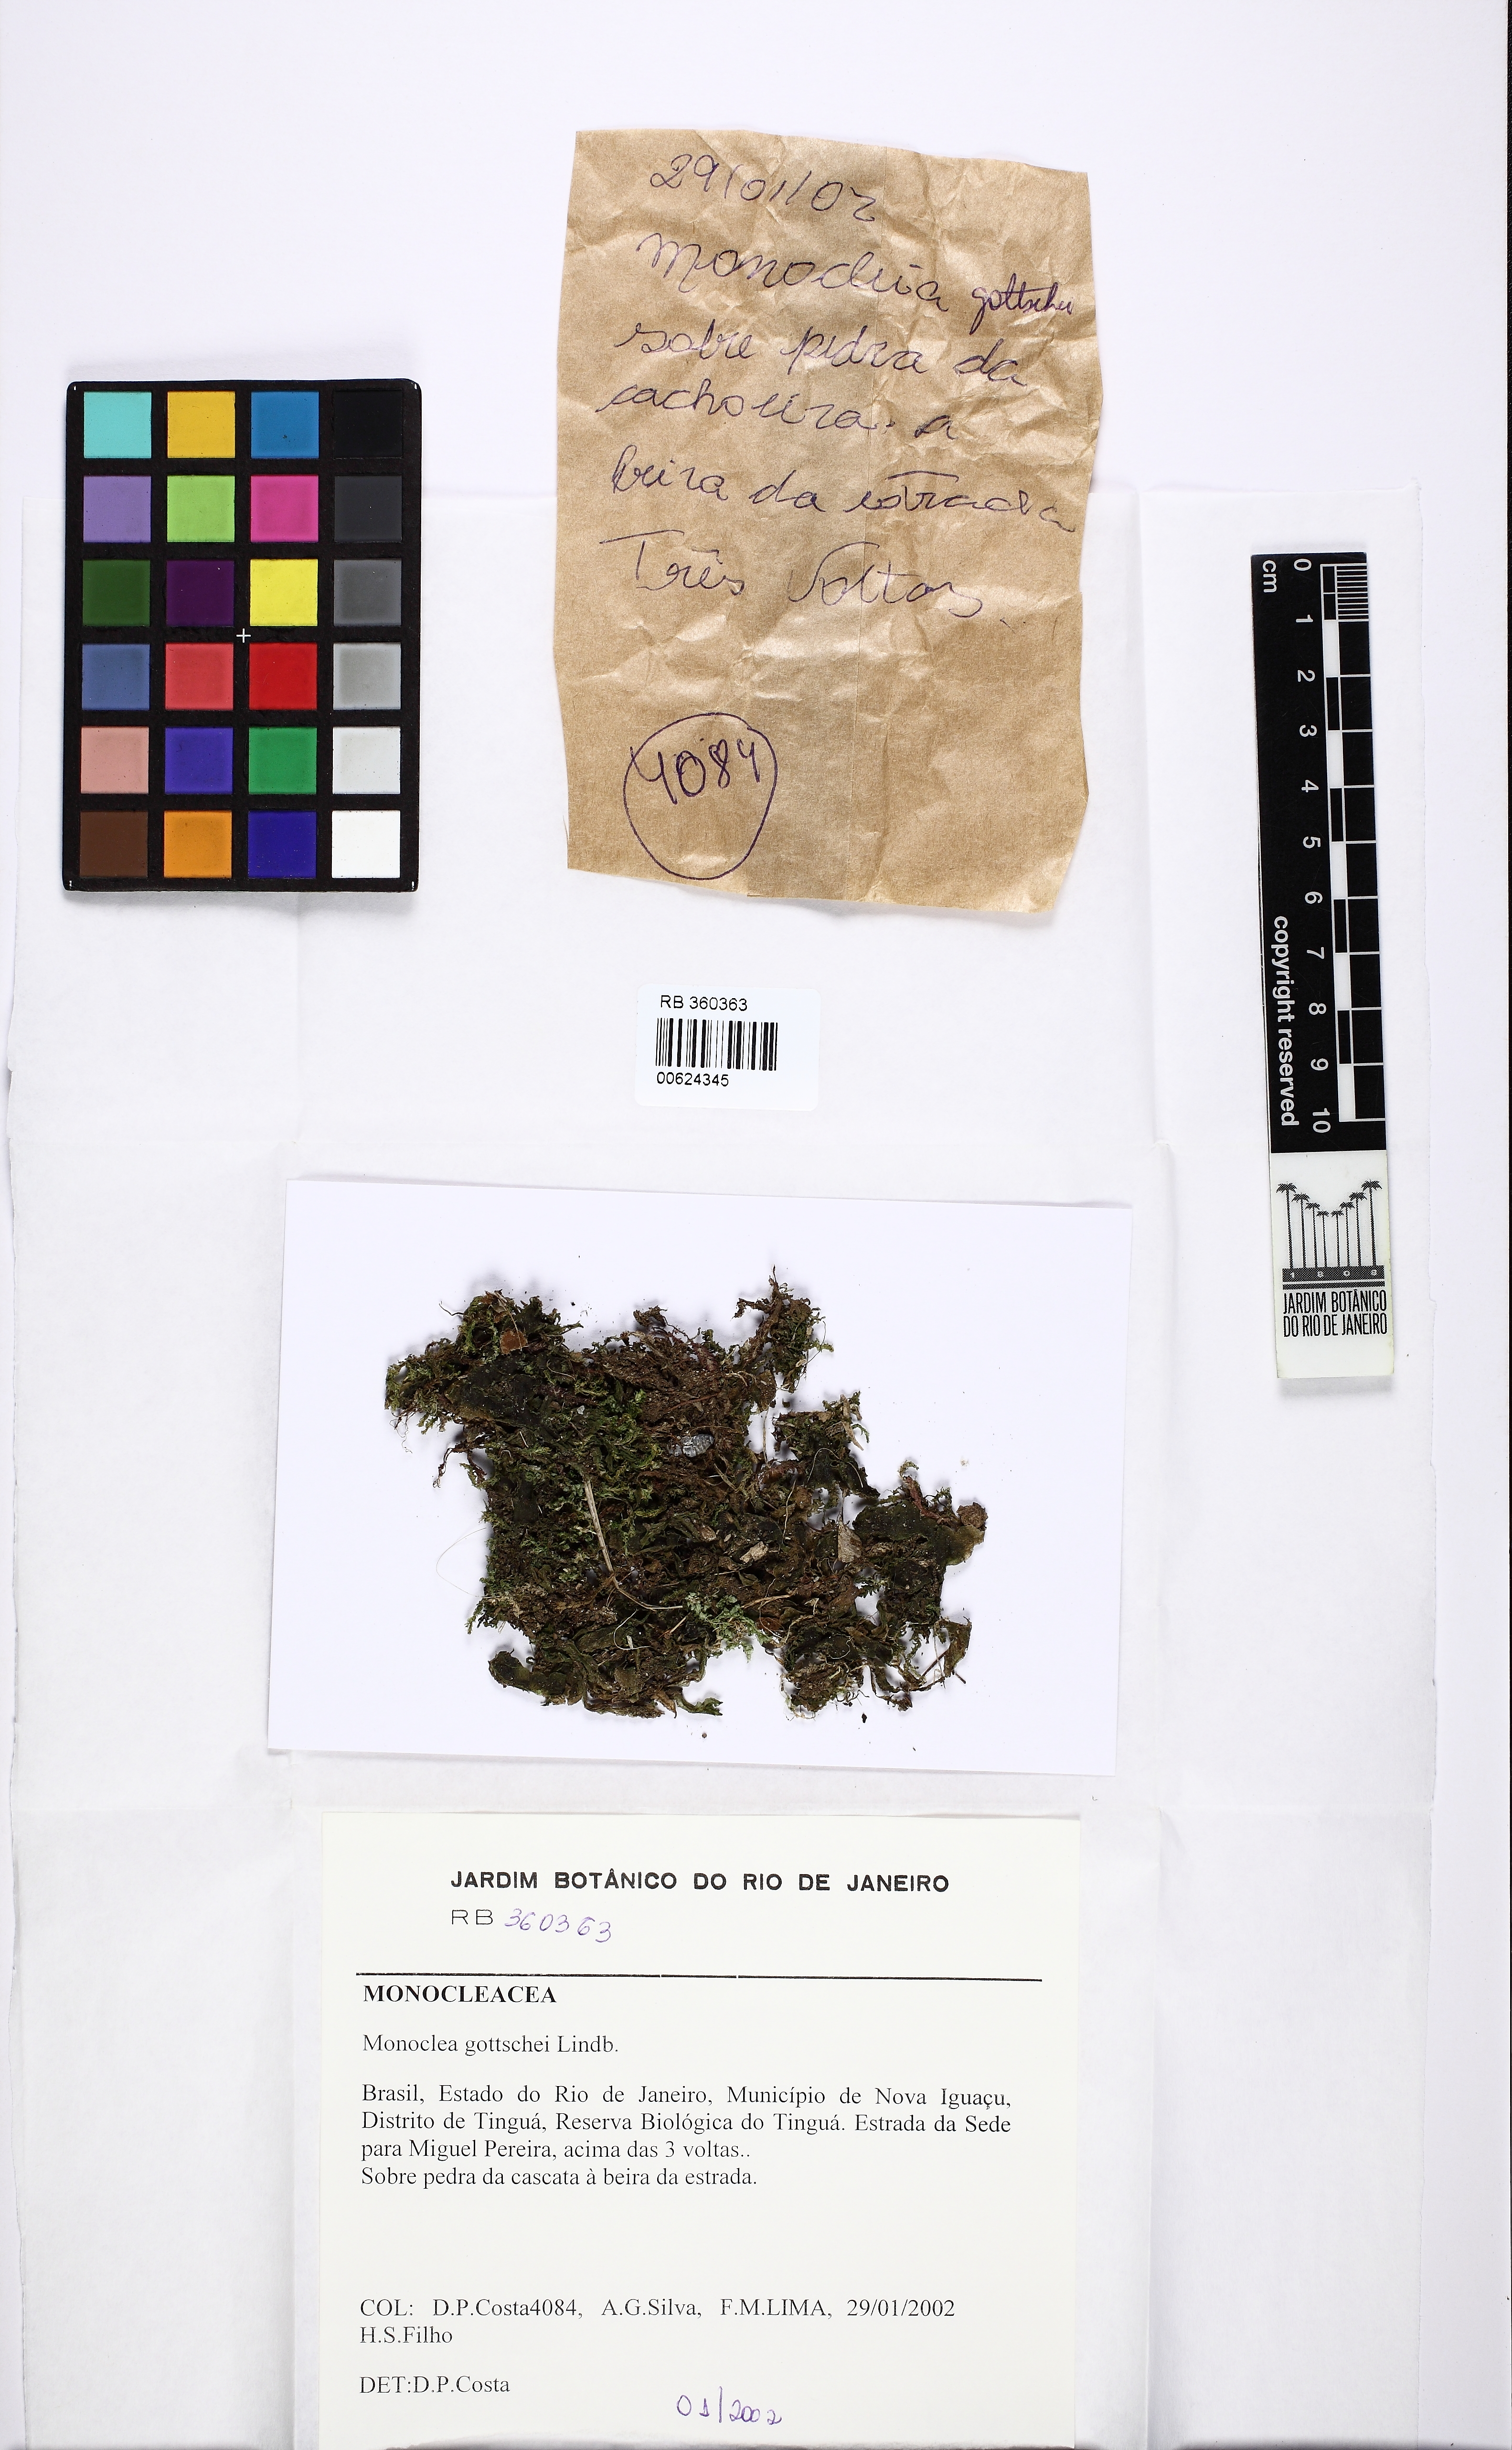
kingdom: Plantae
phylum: Marchantiophyta
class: Marchantiopsida
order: Marchantiales
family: Monocleaceae
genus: Monoclea
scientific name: Monoclea gottschei
